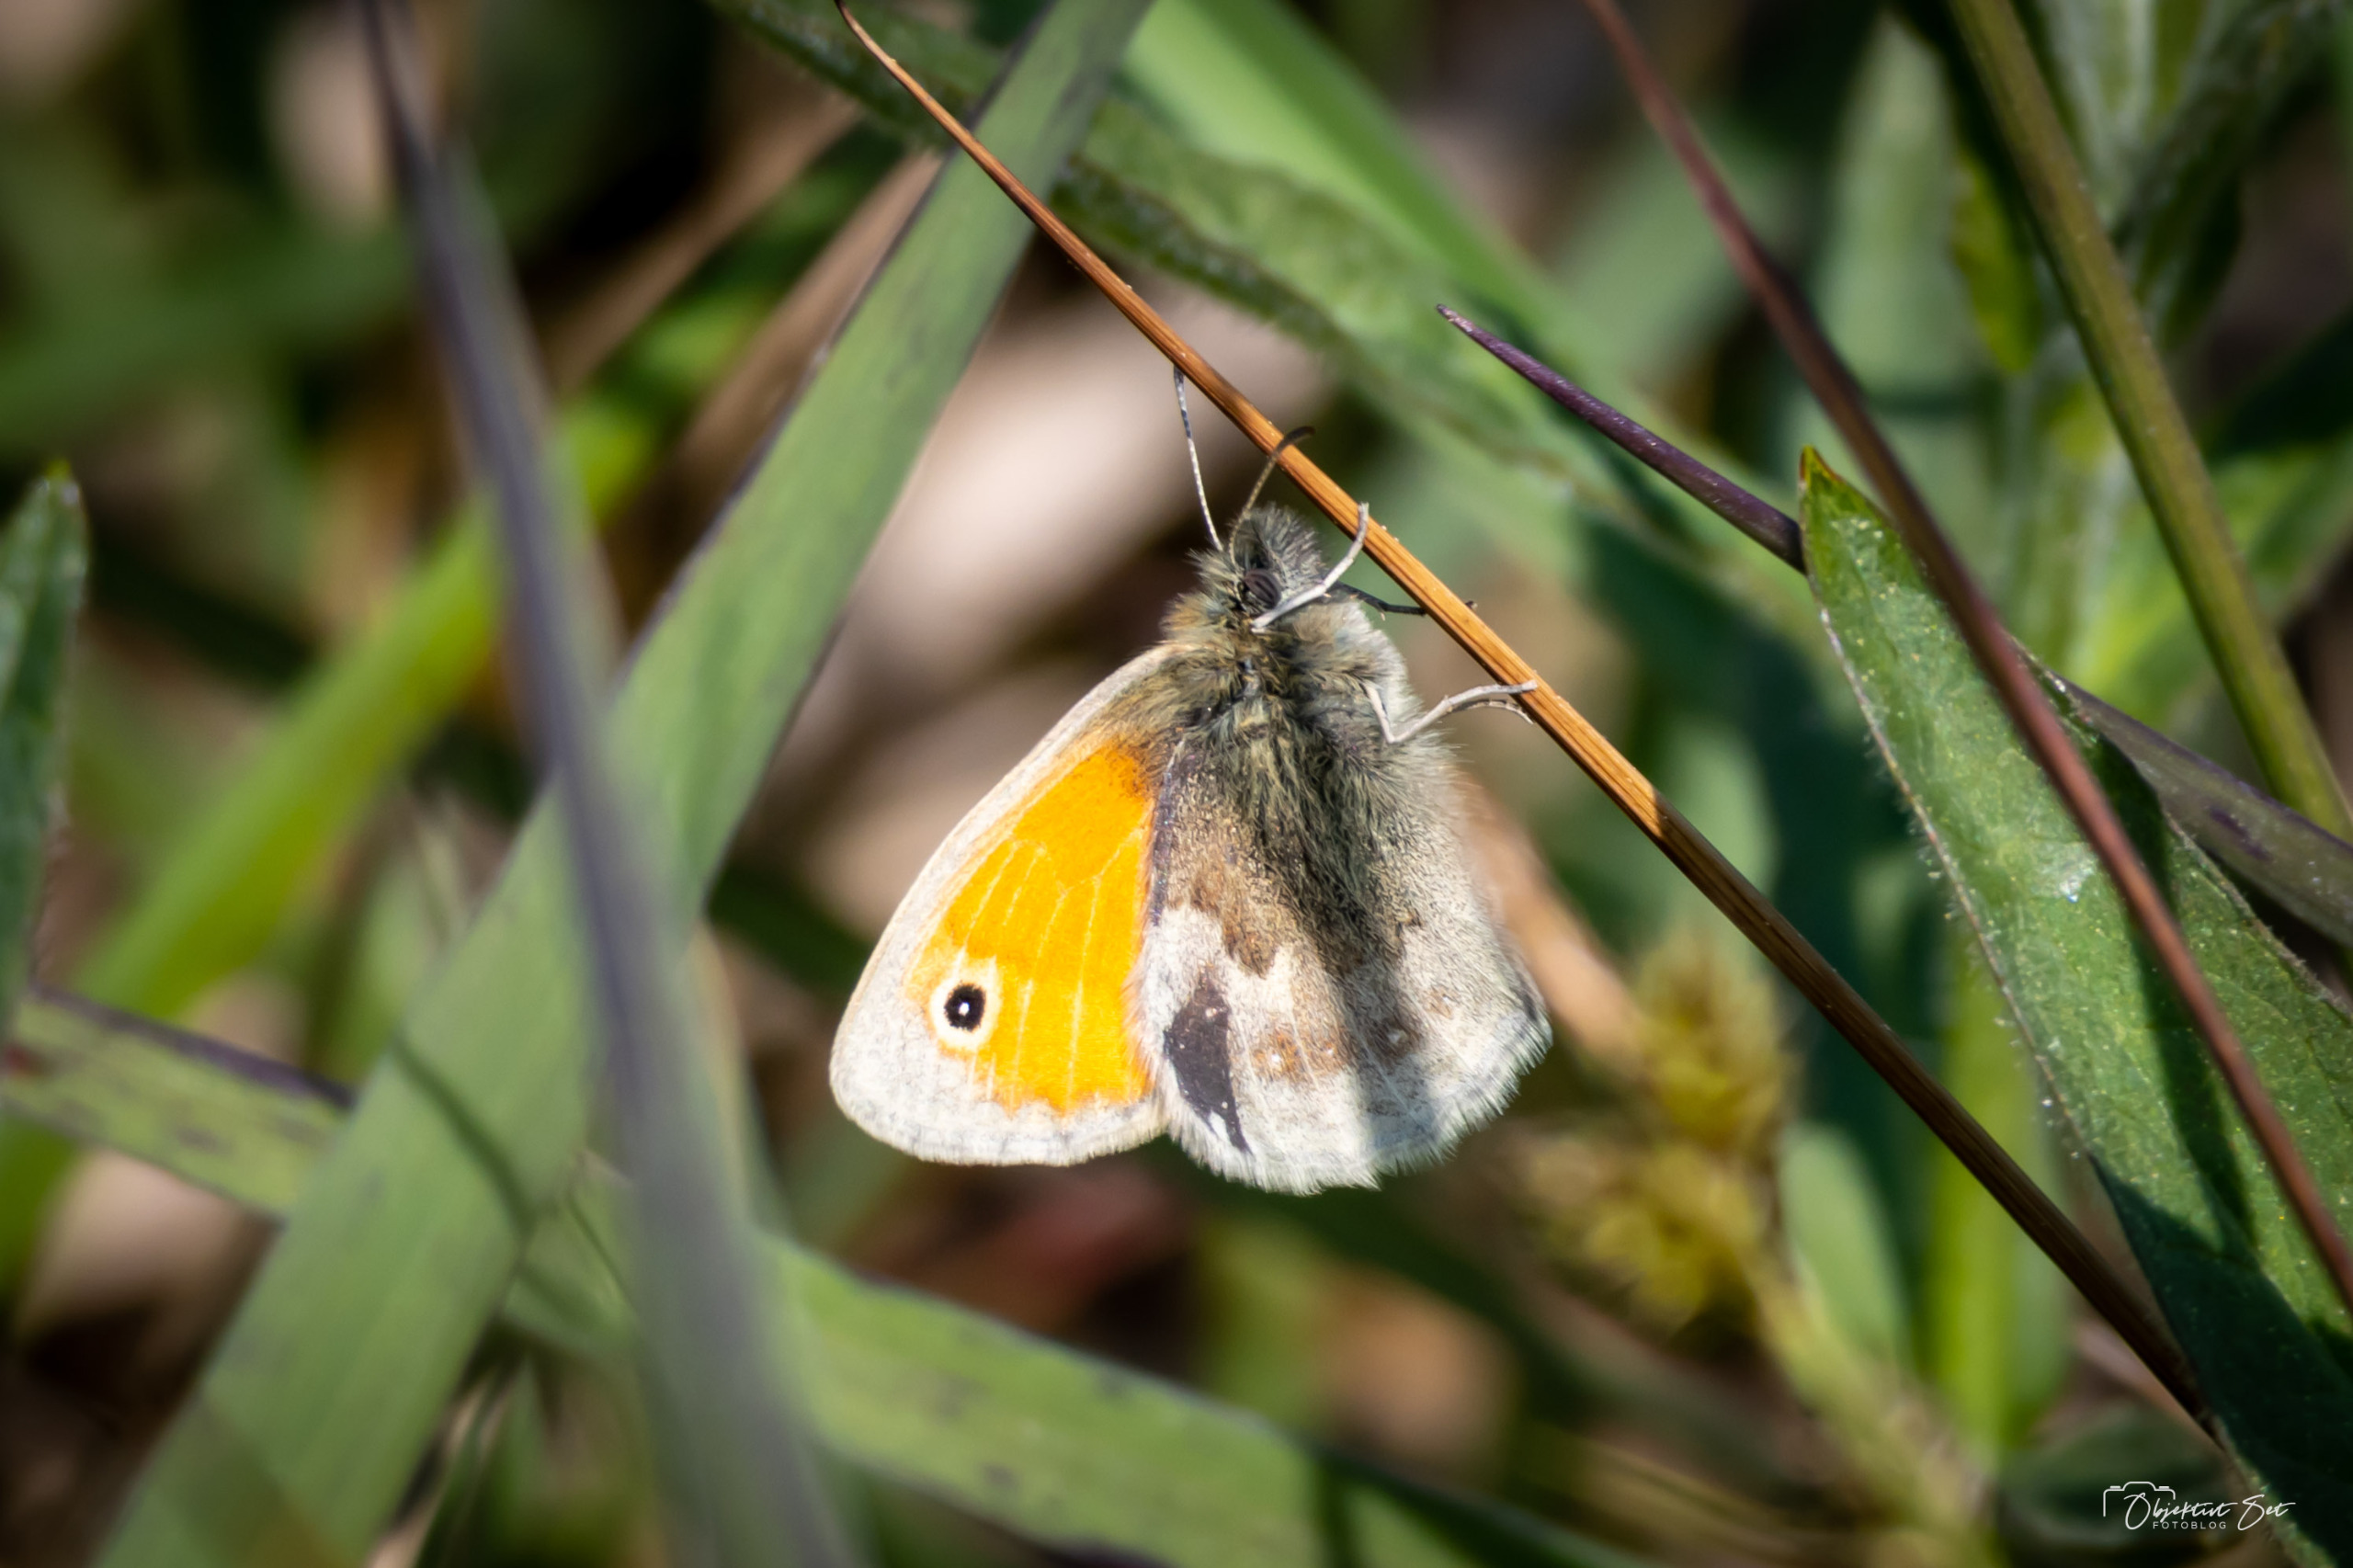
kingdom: Animalia
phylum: Arthropoda
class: Insecta
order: Lepidoptera
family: Nymphalidae
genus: Coenonympha
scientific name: Coenonympha pamphilus
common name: Okkergul randøje
